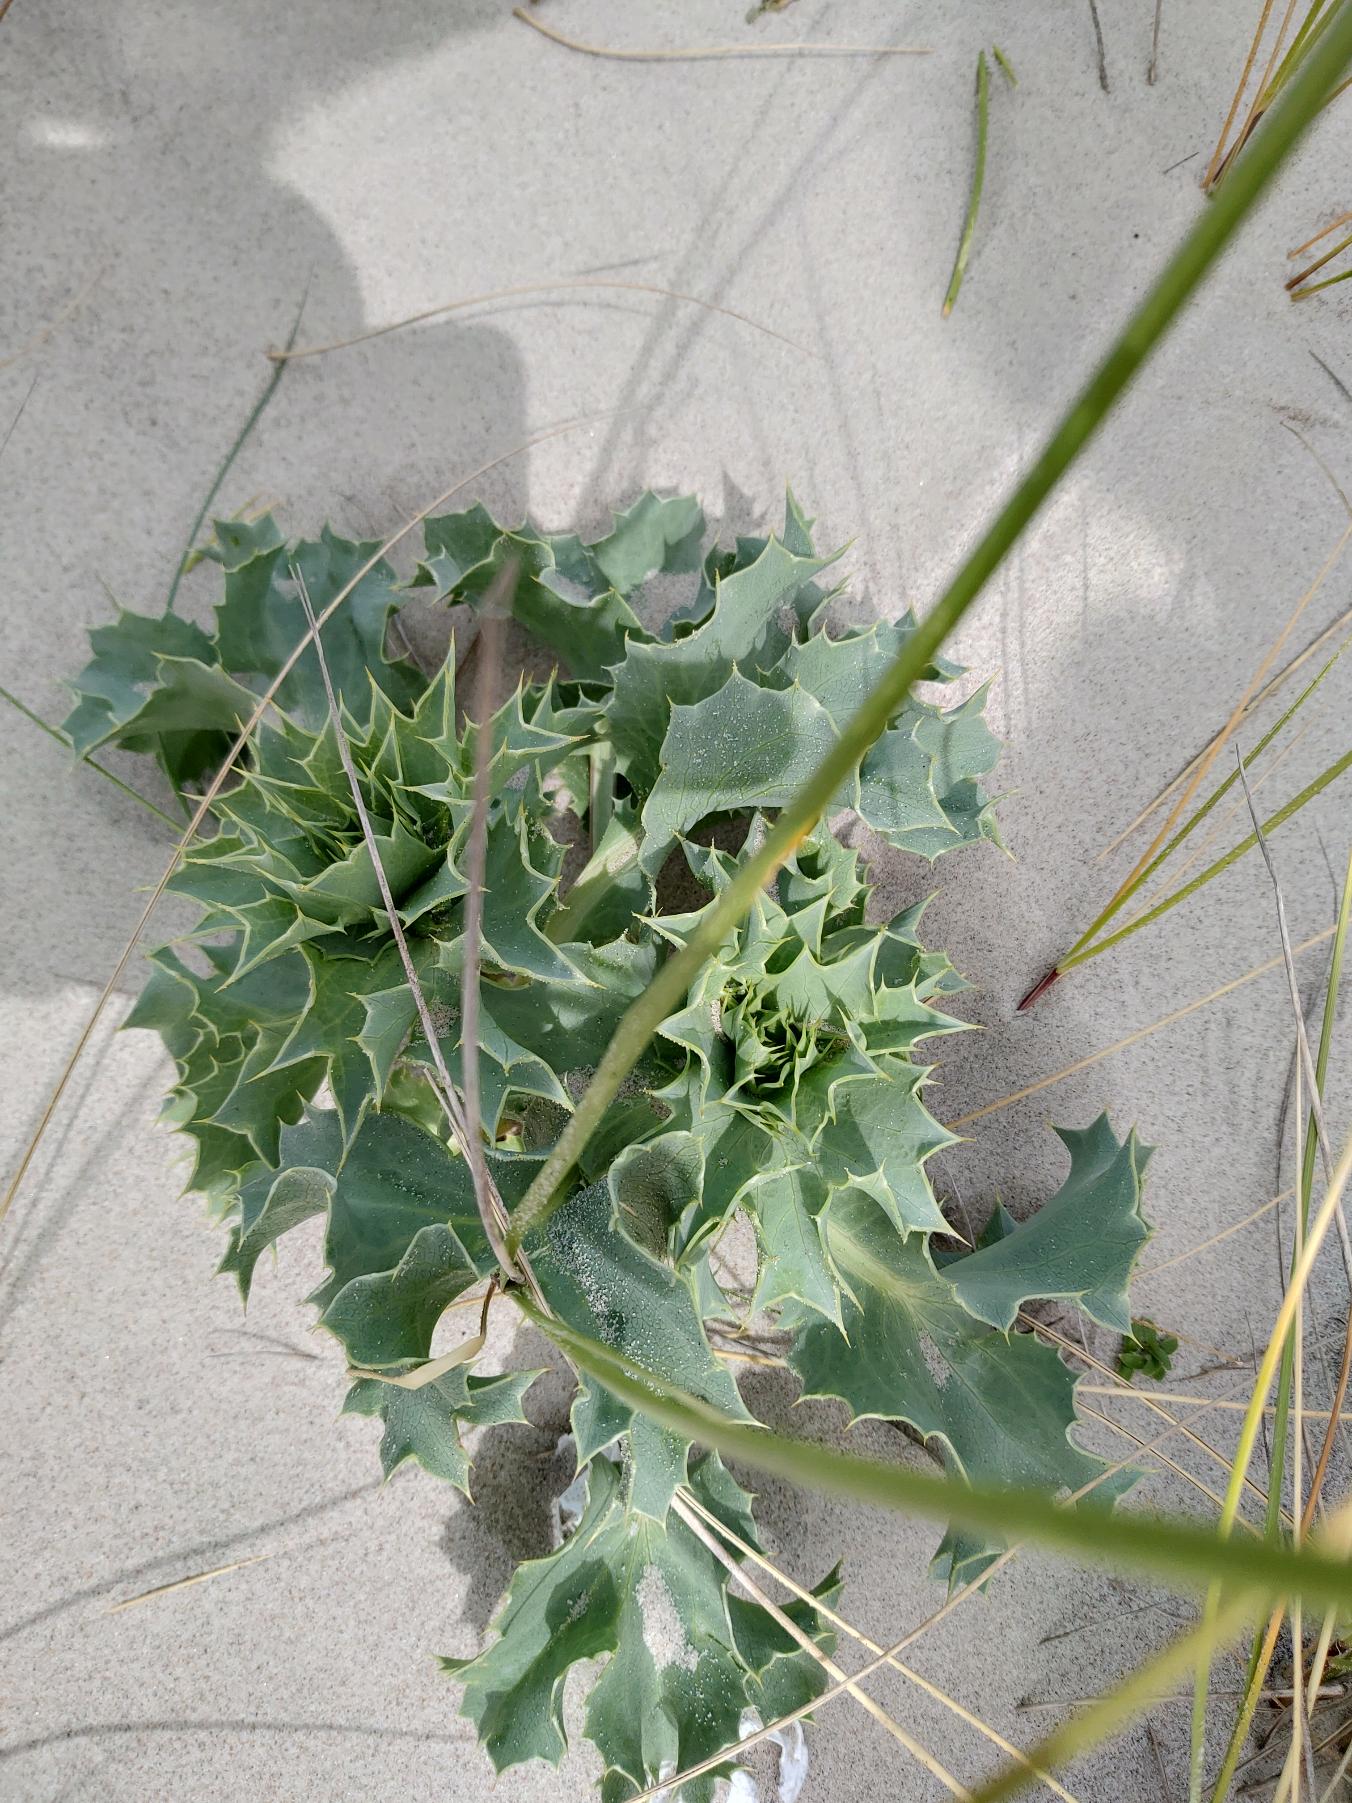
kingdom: Plantae
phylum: Tracheophyta
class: Magnoliopsida
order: Apiales
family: Apiaceae
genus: Eryngium
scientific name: Eryngium maritimum
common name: Strand-mandstro
